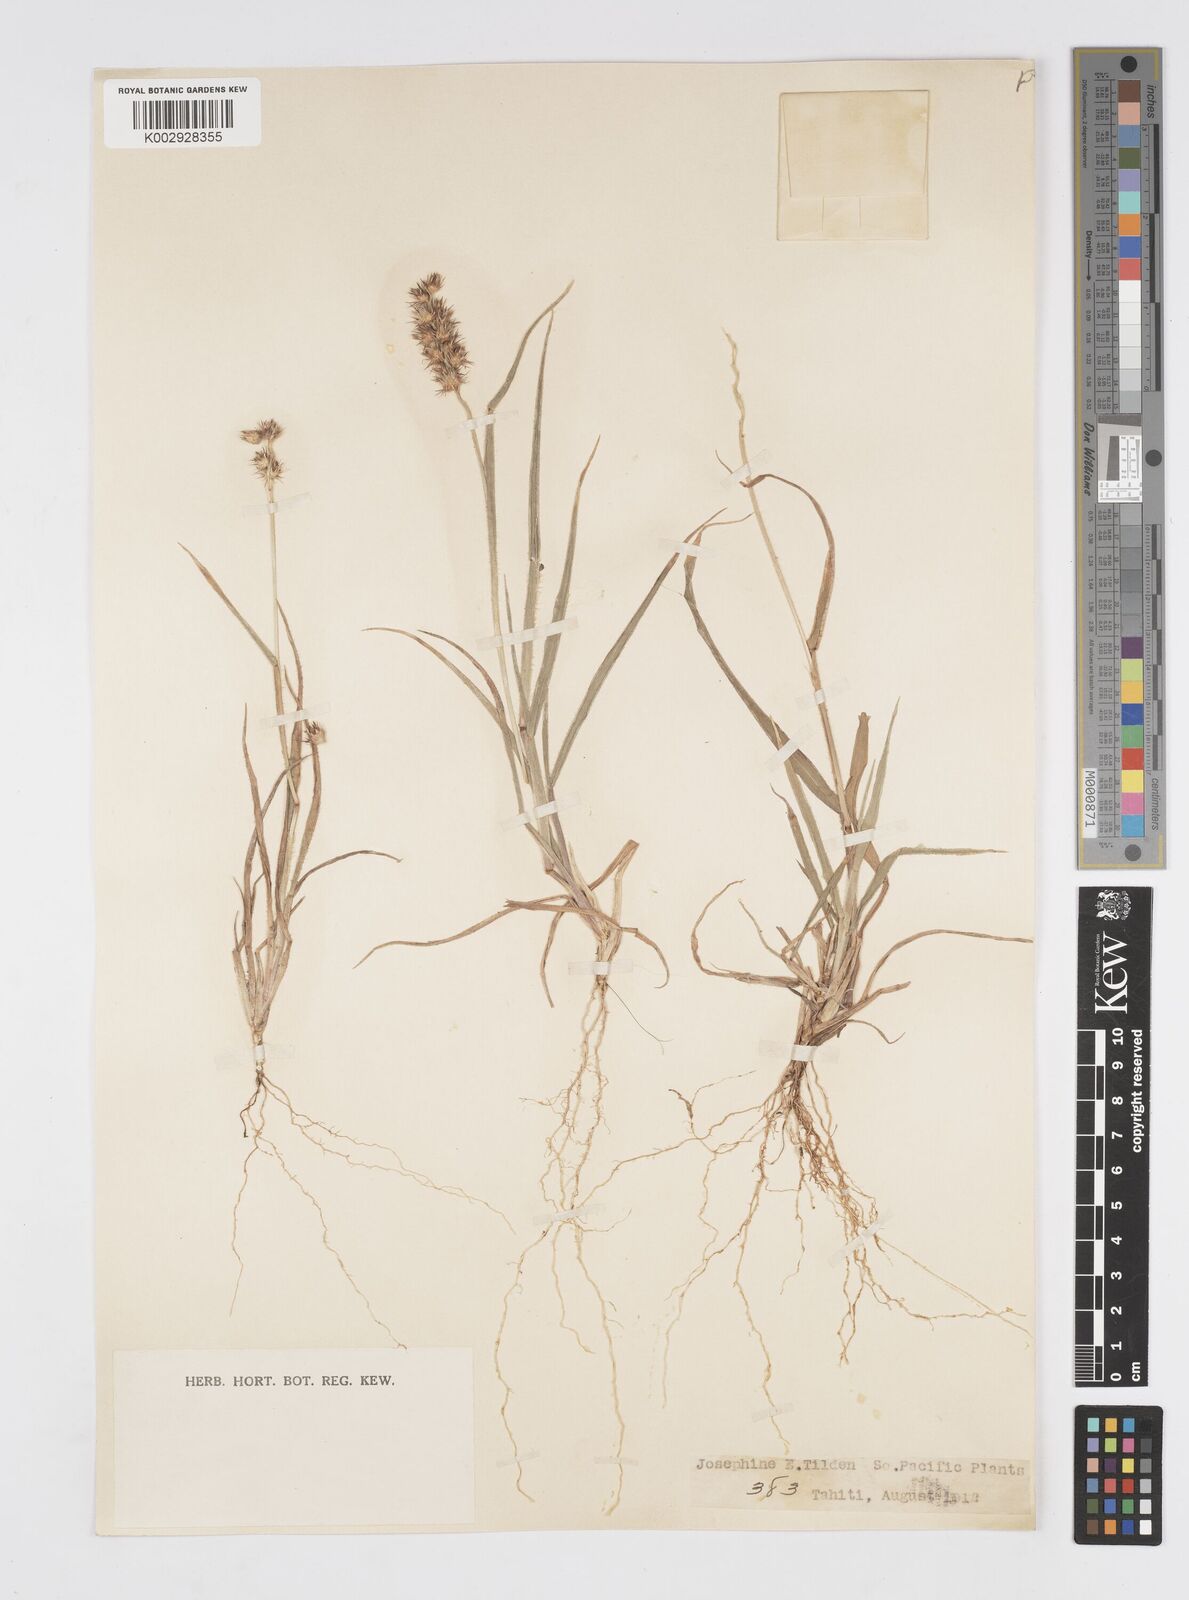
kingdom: Plantae
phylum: Tracheophyta
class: Liliopsida
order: Poales
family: Poaceae
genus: Cenchrus
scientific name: Cenchrus echinatus
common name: Southern sandbur
